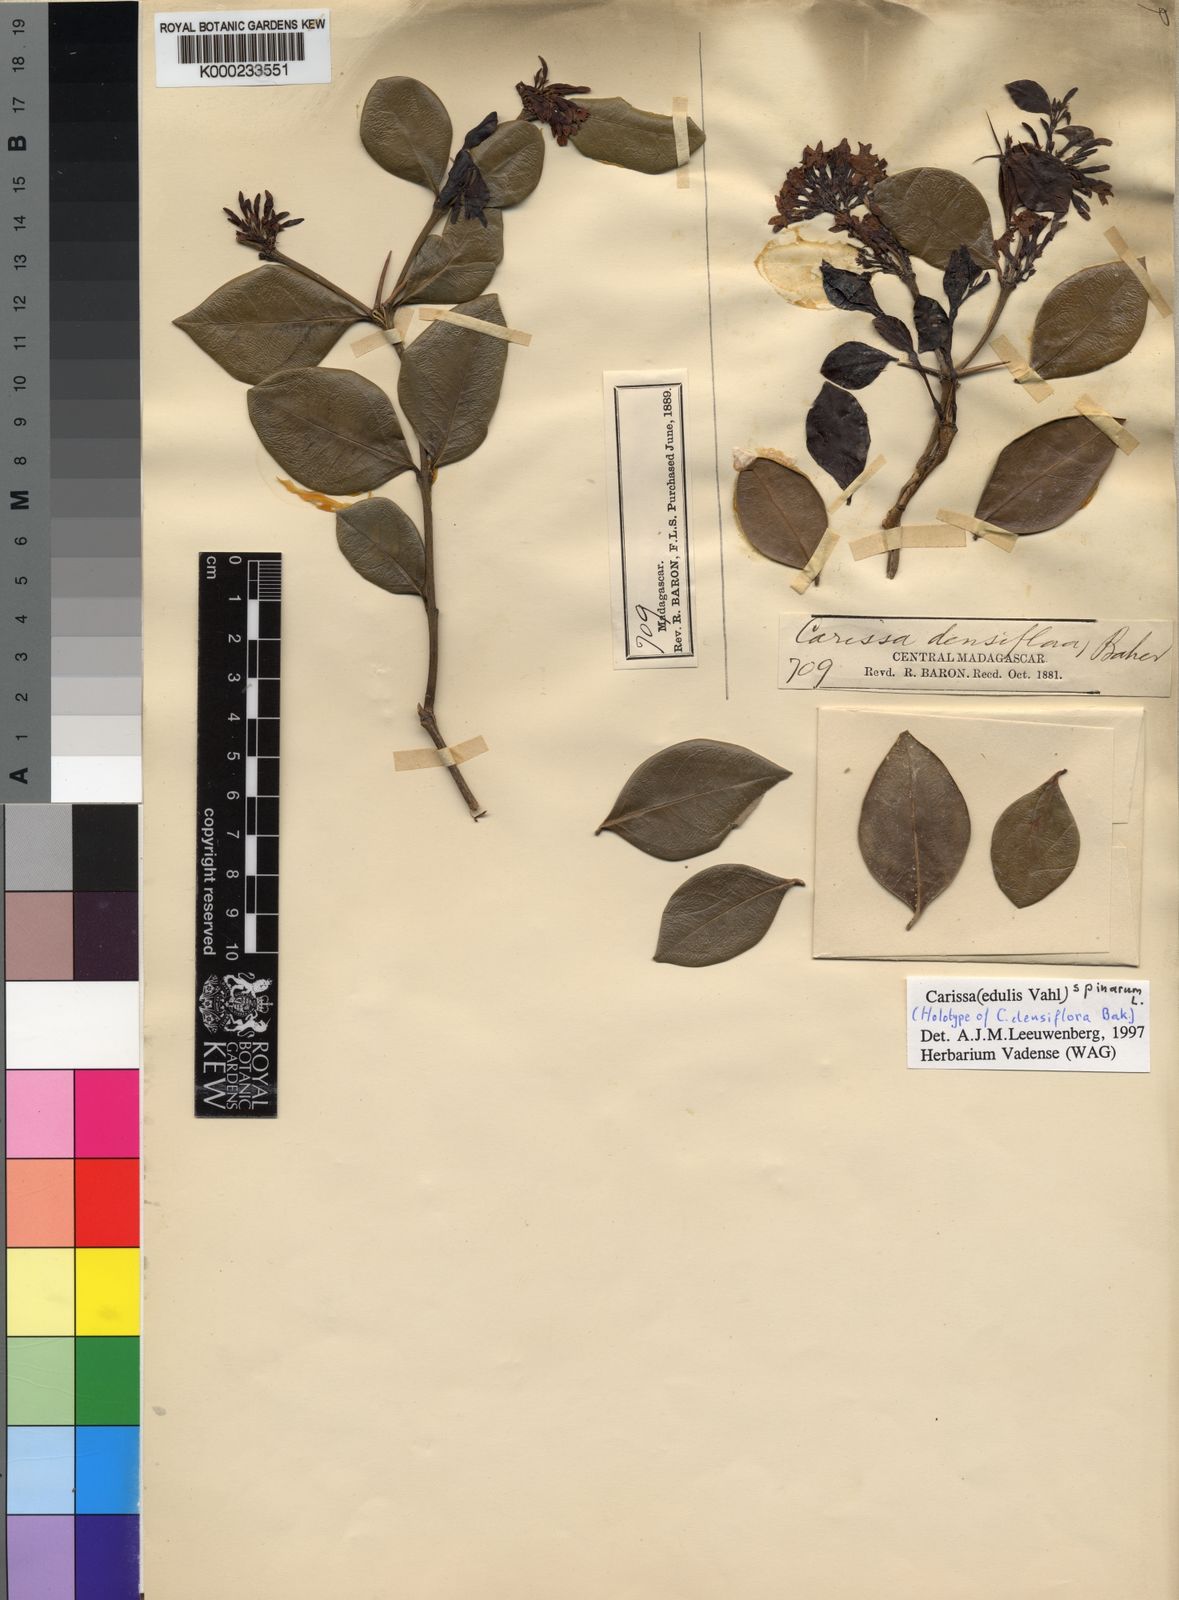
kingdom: Plantae
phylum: Tracheophyta
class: Magnoliopsida
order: Gentianales
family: Apocynaceae
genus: Carissa
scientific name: Carissa spinarum
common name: Egyptian carissa
